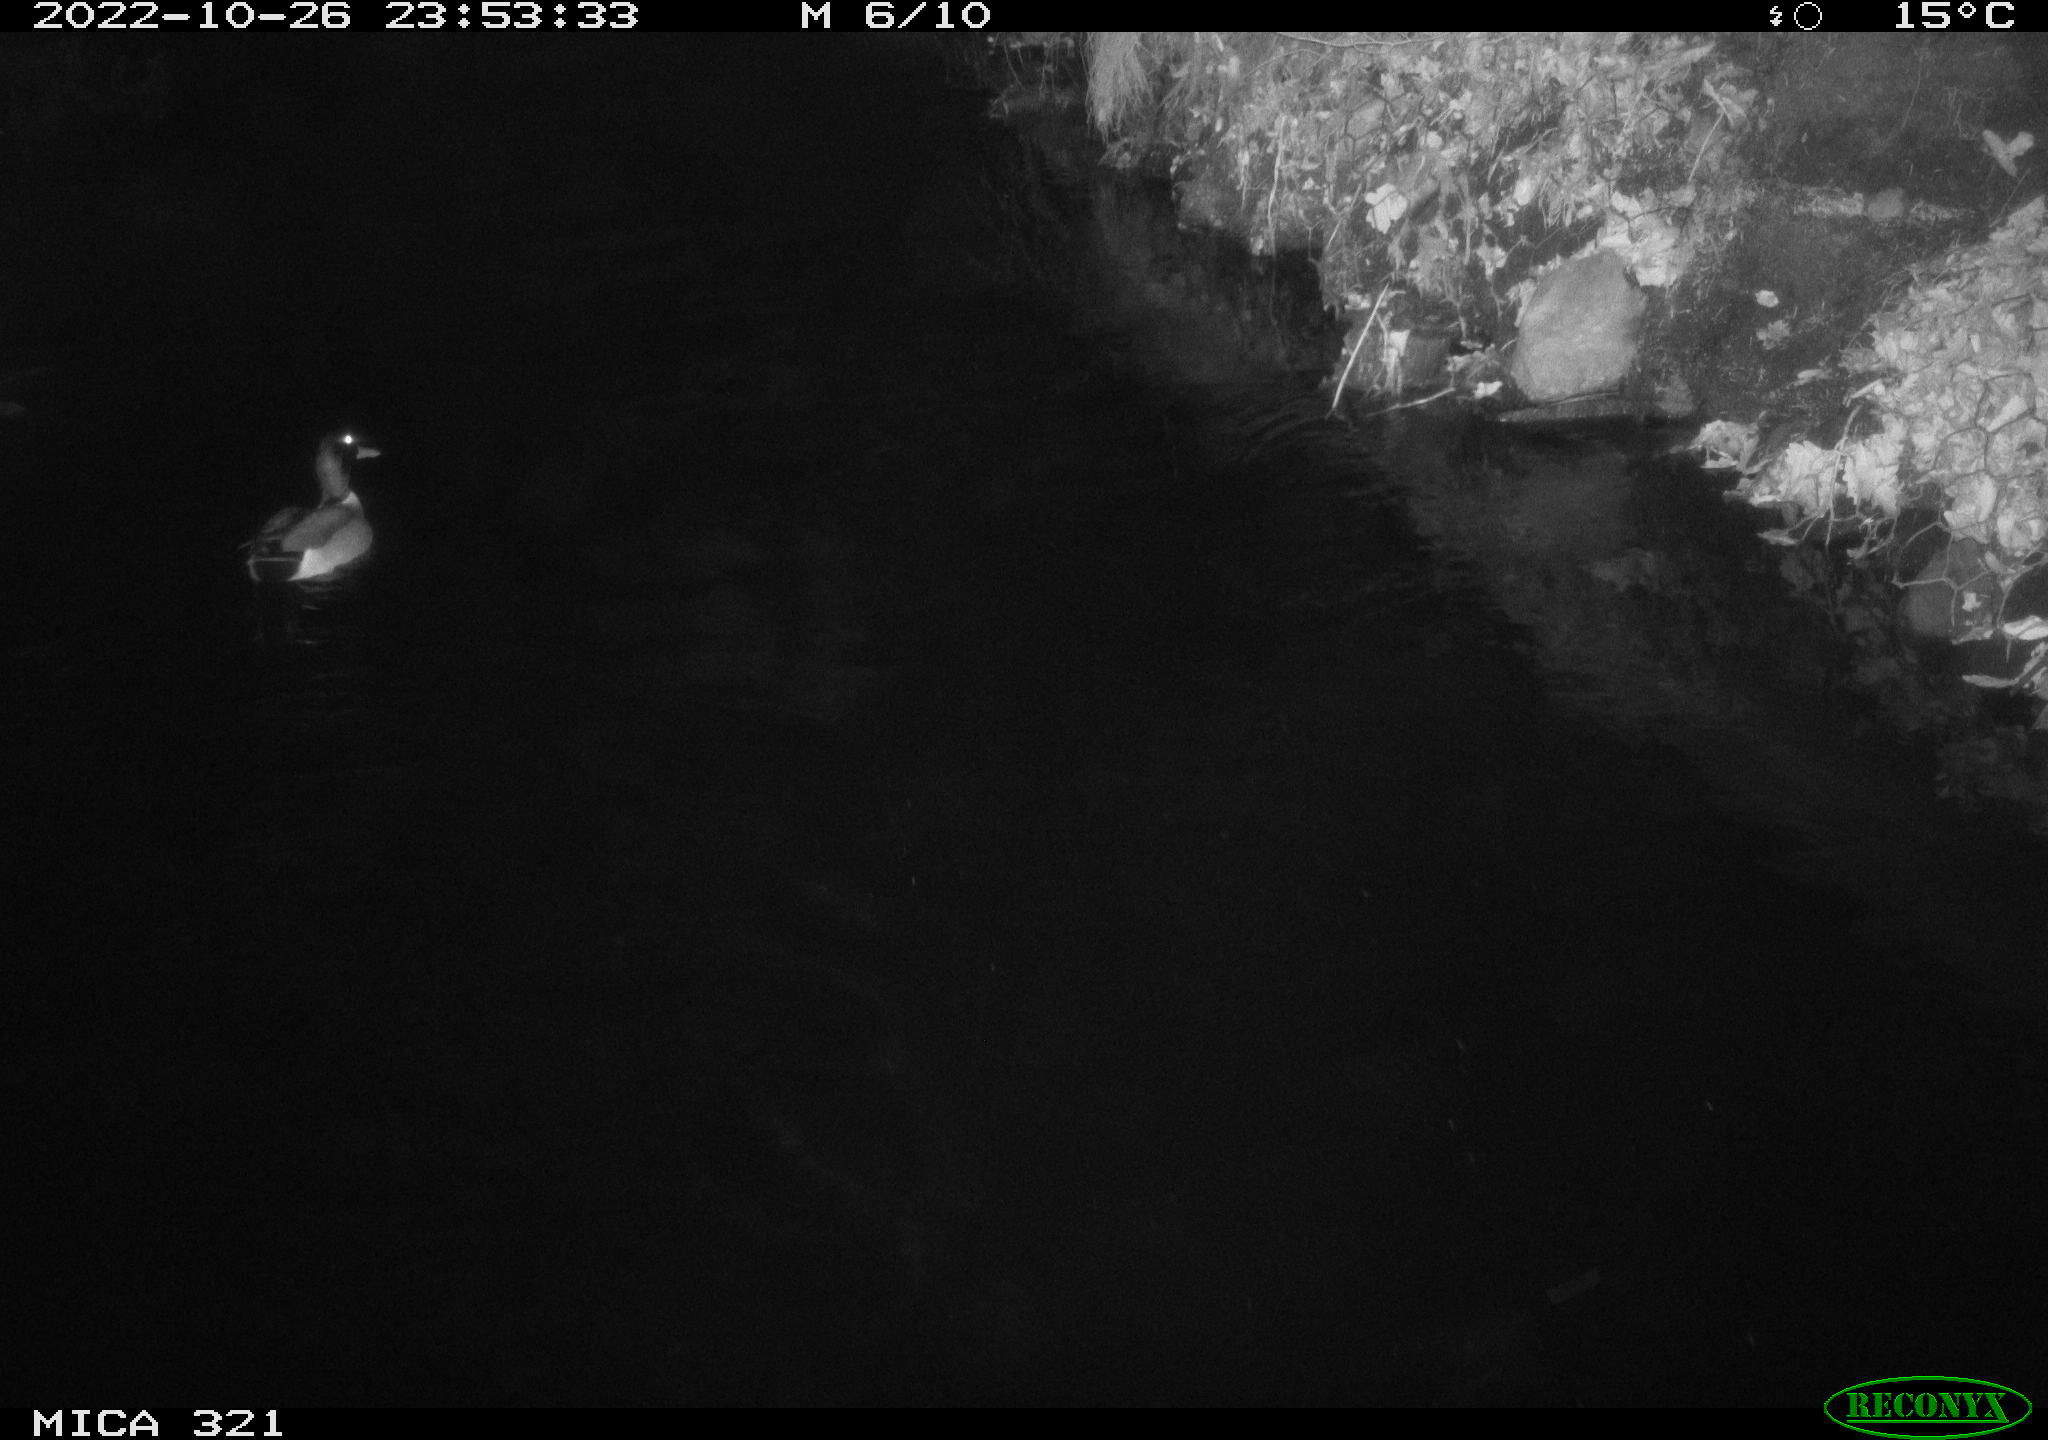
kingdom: Animalia
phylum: Chordata
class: Aves
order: Anseriformes
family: Anatidae
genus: Anas
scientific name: Anas
